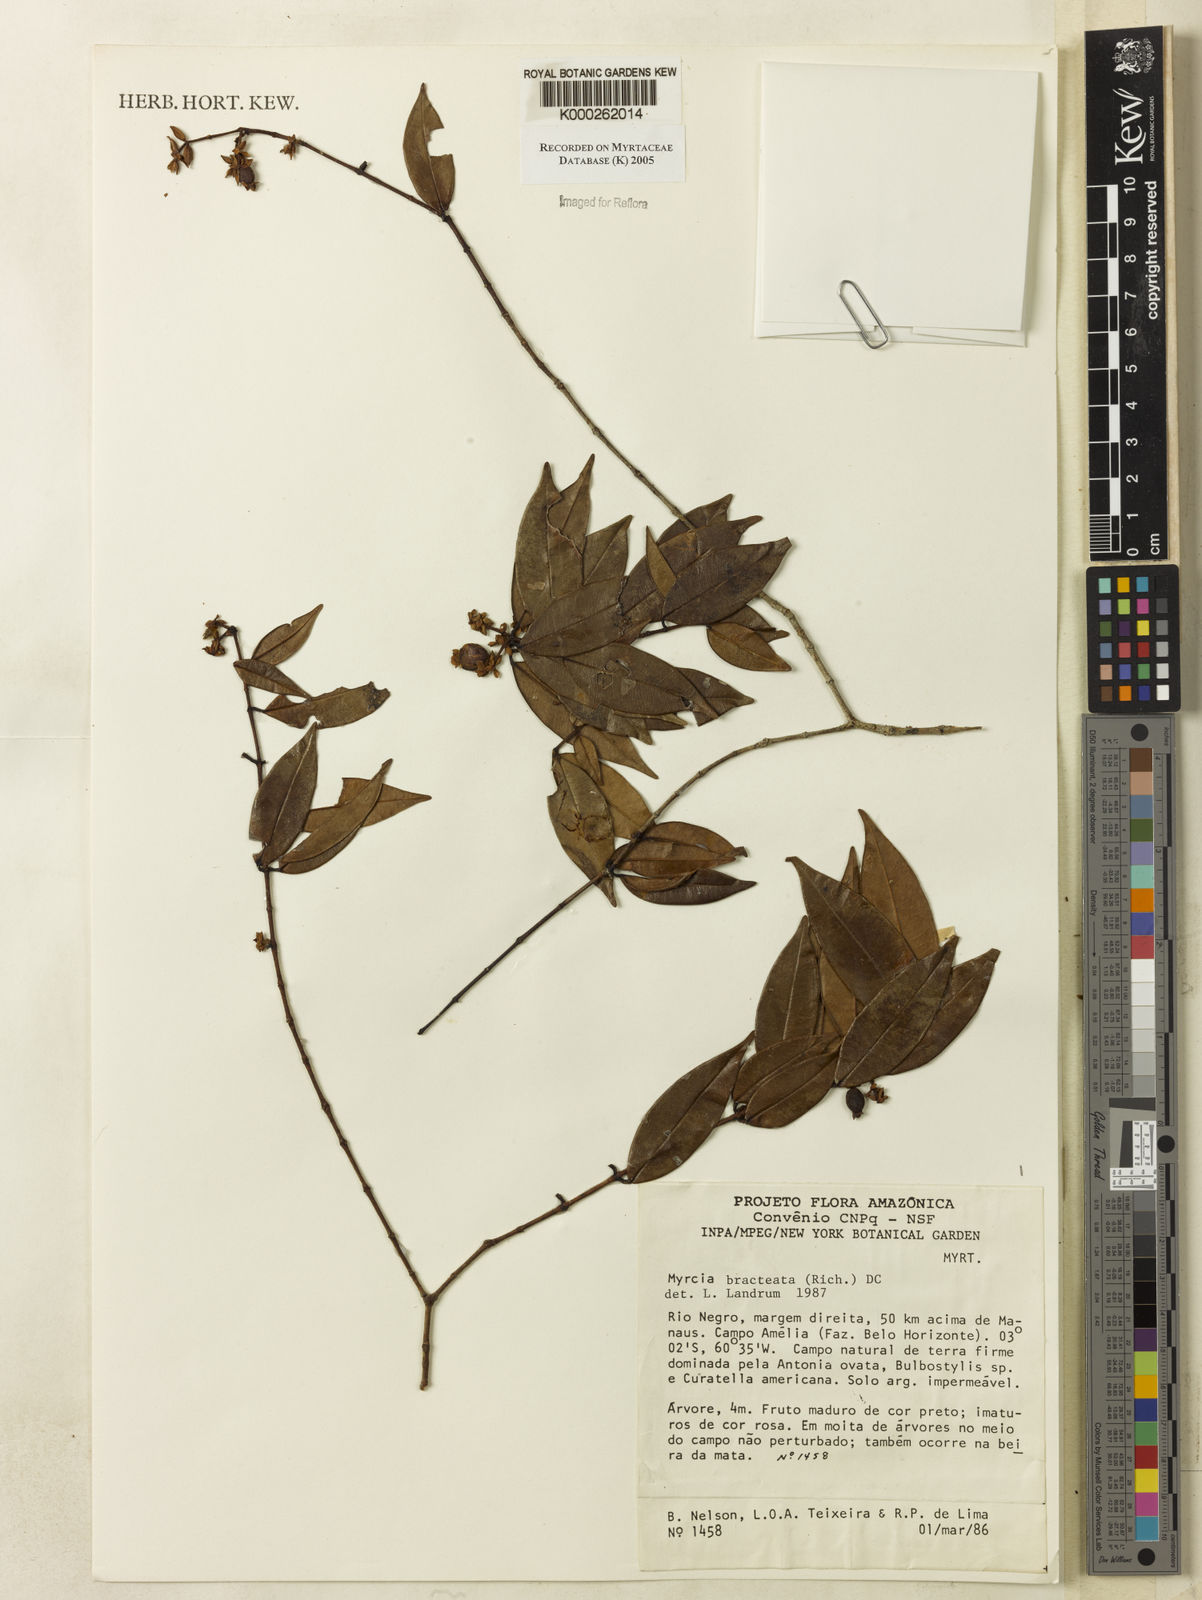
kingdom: Plantae
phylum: Tracheophyta
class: Magnoliopsida
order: Myrtales
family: Myrtaceae
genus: Myrcia
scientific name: Myrcia bracteata
